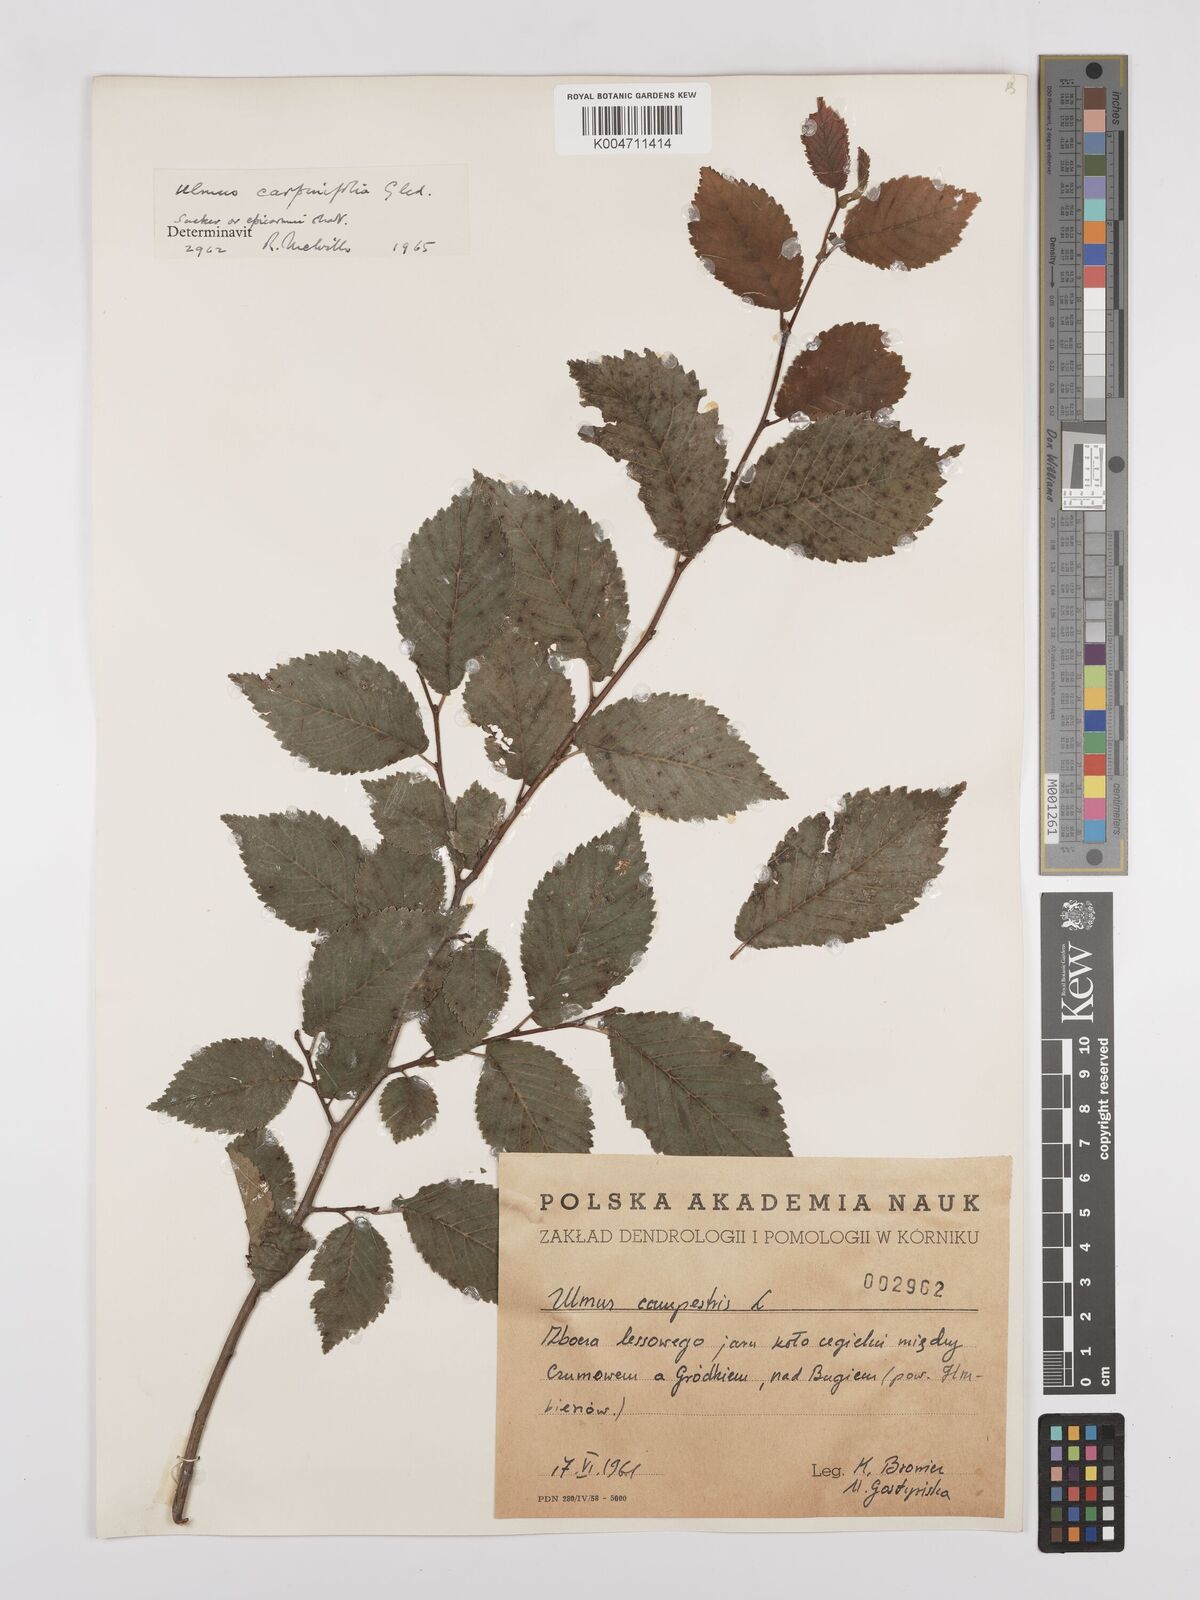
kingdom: Plantae
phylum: Tracheophyta
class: Magnoliopsida
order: Rosales
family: Ulmaceae
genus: Ulmus
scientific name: Ulmus minor
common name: Small-leaved elm
